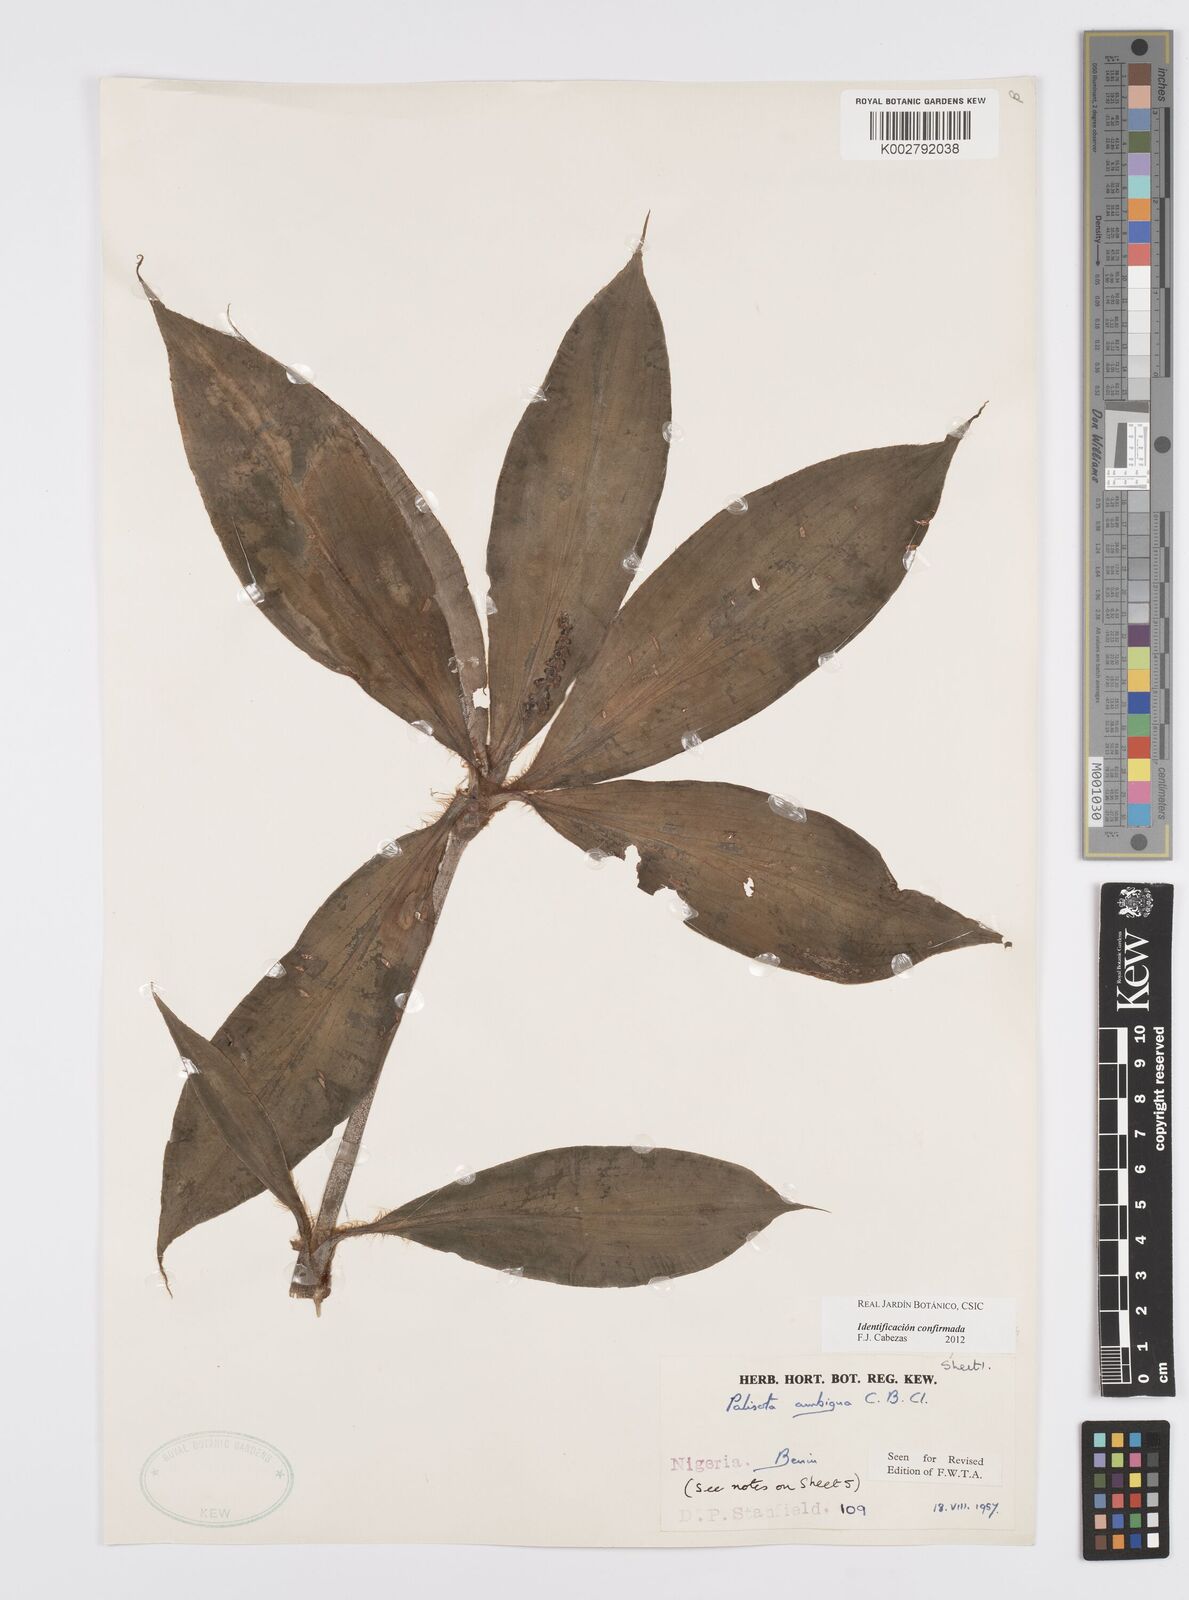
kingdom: Plantae
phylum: Tracheophyta
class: Liliopsida
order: Commelinales
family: Commelinaceae
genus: Palisota
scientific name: Palisota ambigua
